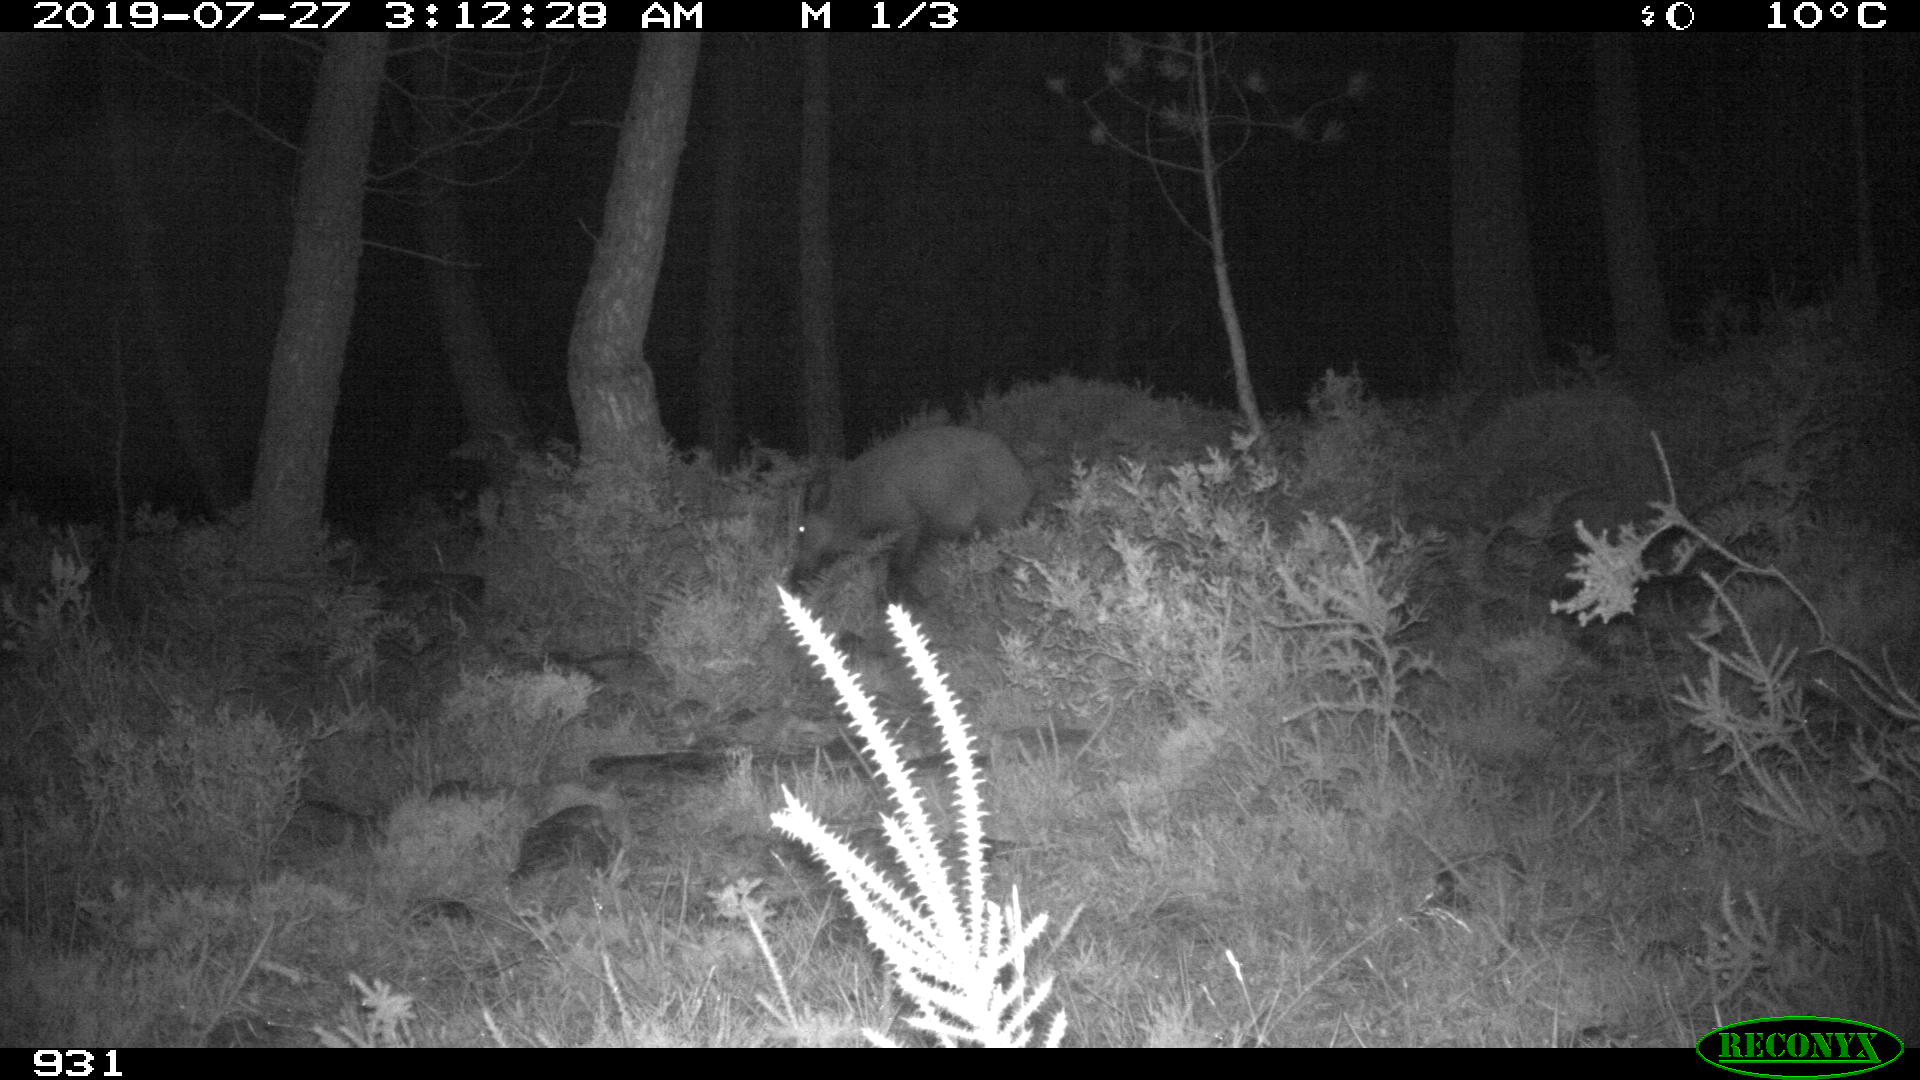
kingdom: Animalia
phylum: Chordata
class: Mammalia
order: Artiodactyla
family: Suidae
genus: Sus
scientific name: Sus scrofa
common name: Wild boar
